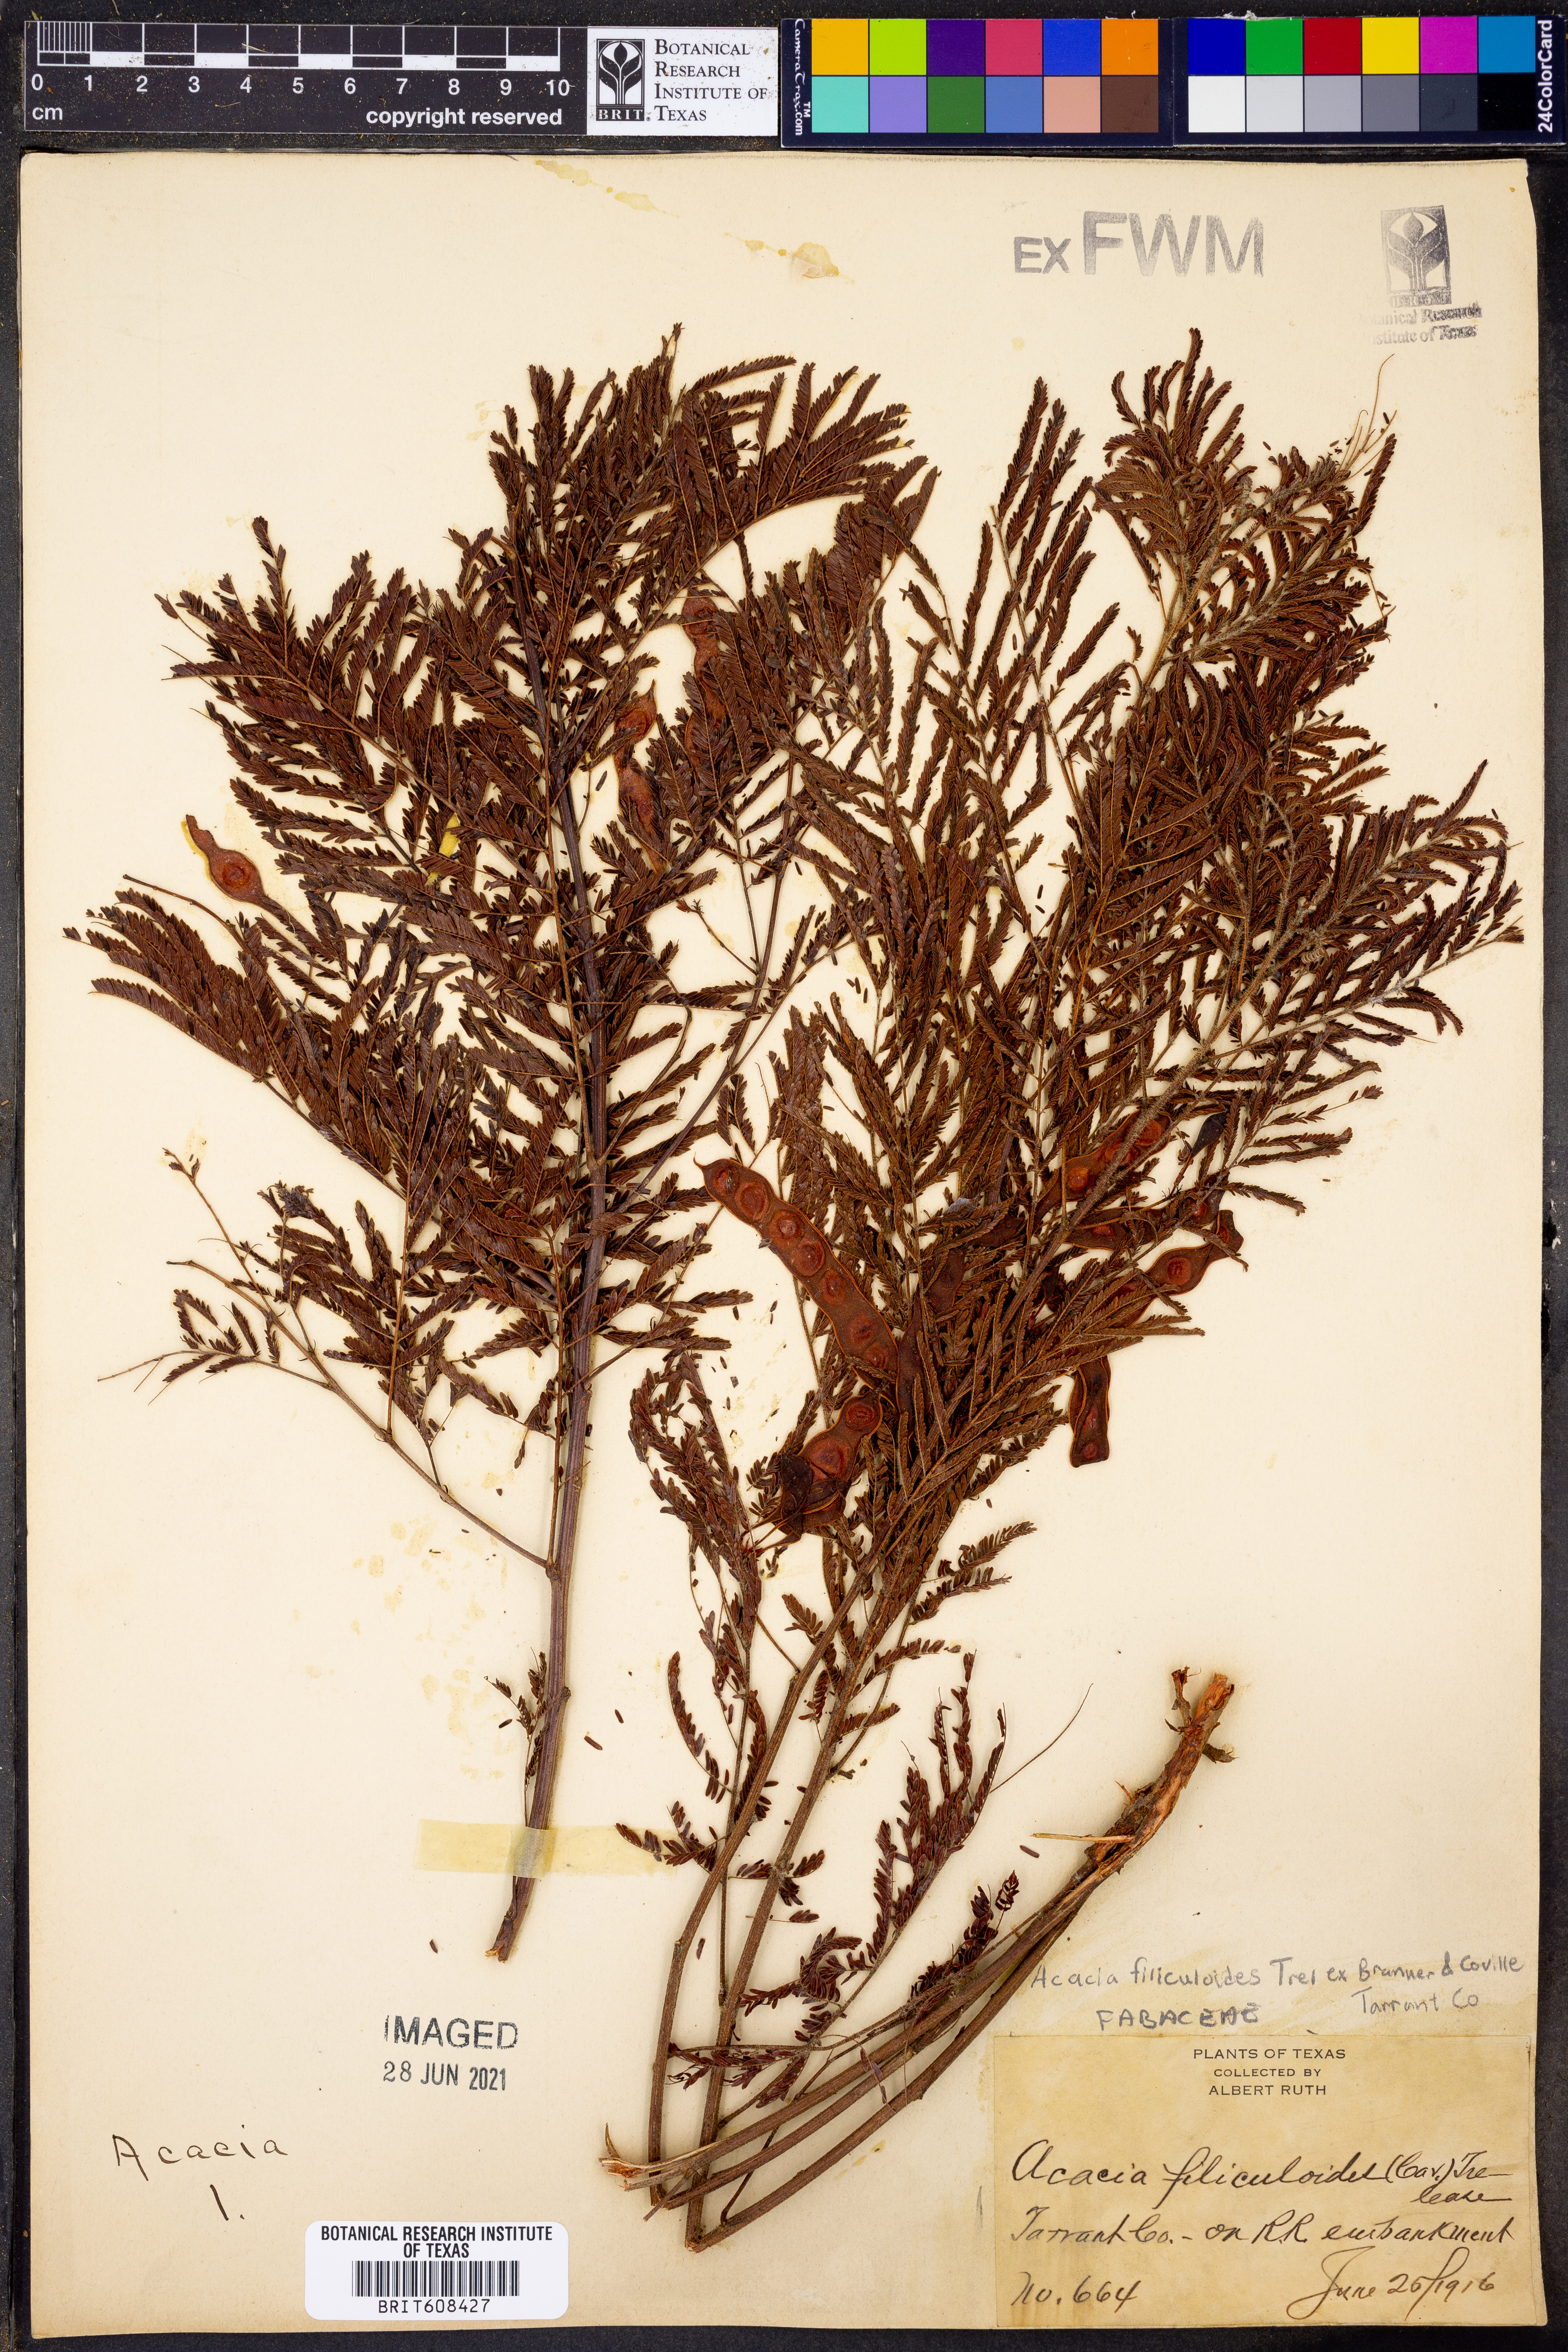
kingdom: Plantae
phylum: Tracheophyta
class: Magnoliopsida
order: Fabales
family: Fabaceae
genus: Acaciella
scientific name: Acaciella angustissima
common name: Prairie acacia
